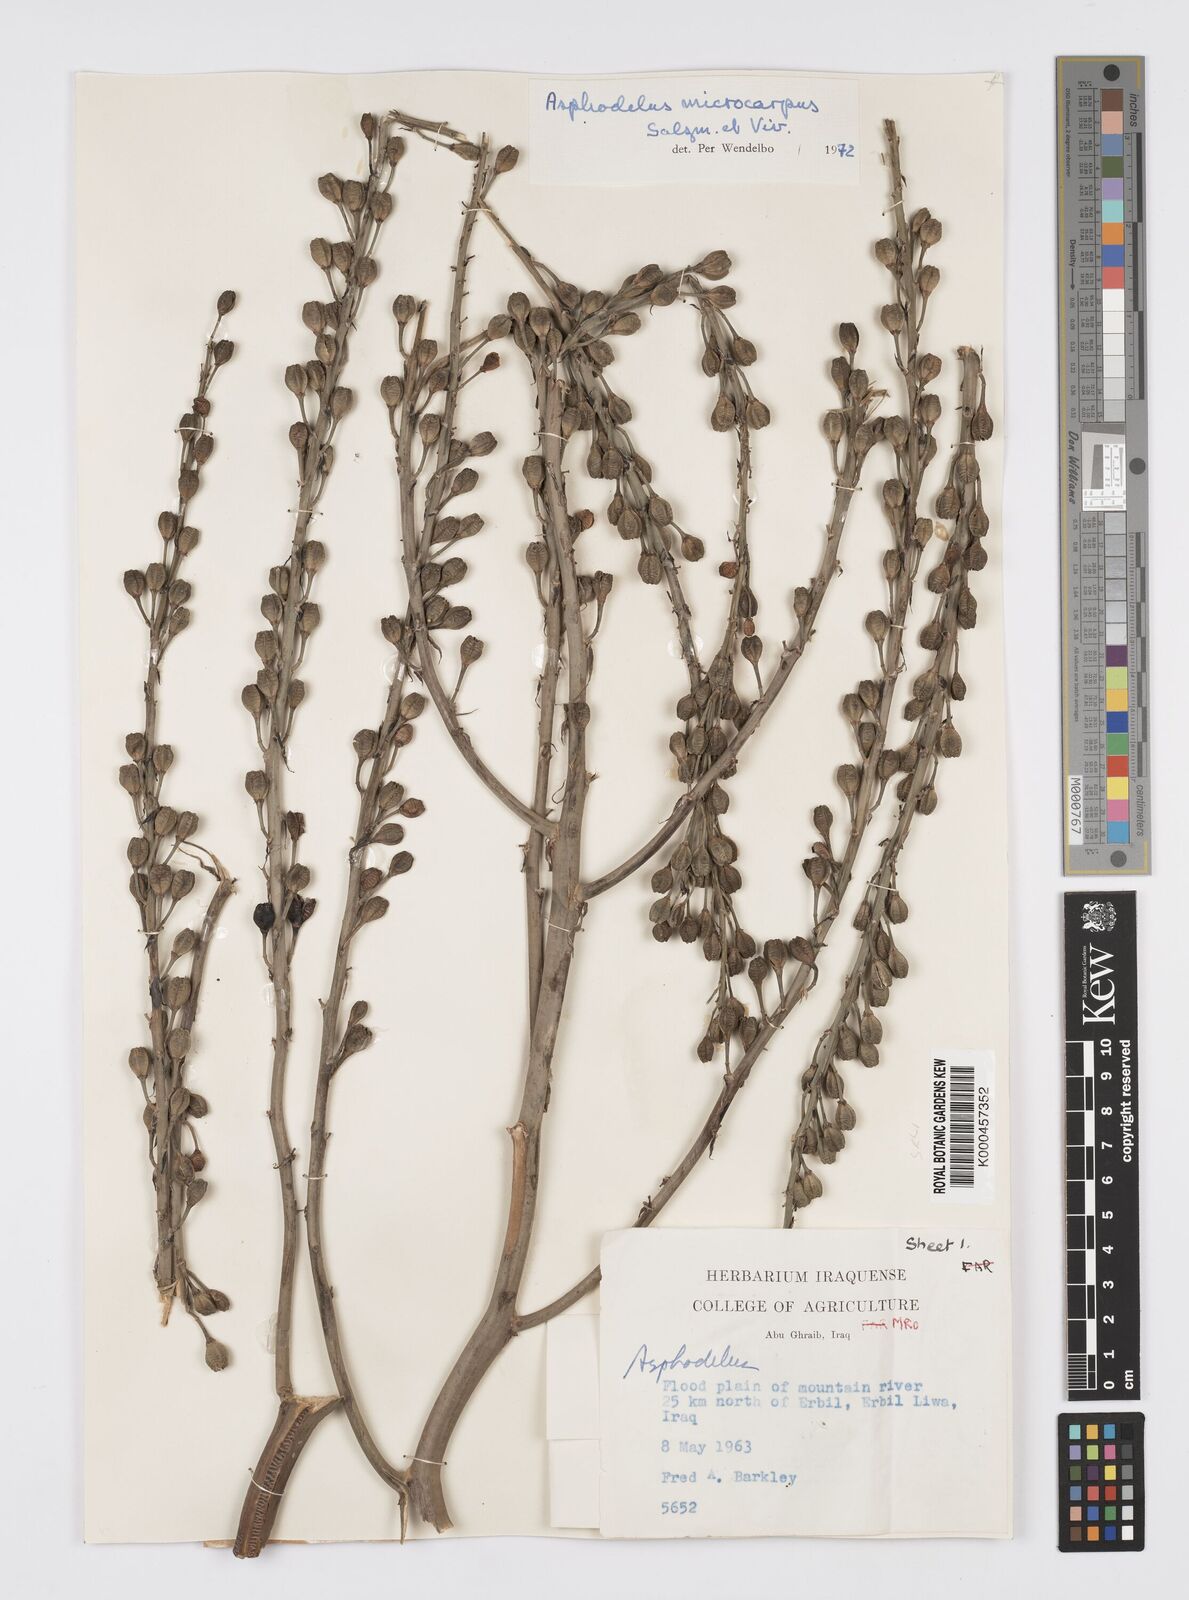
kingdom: Plantae
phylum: Tracheophyta
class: Liliopsida
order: Asparagales
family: Asphodelaceae
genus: Asphodelus
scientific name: Asphodelus aestivus
